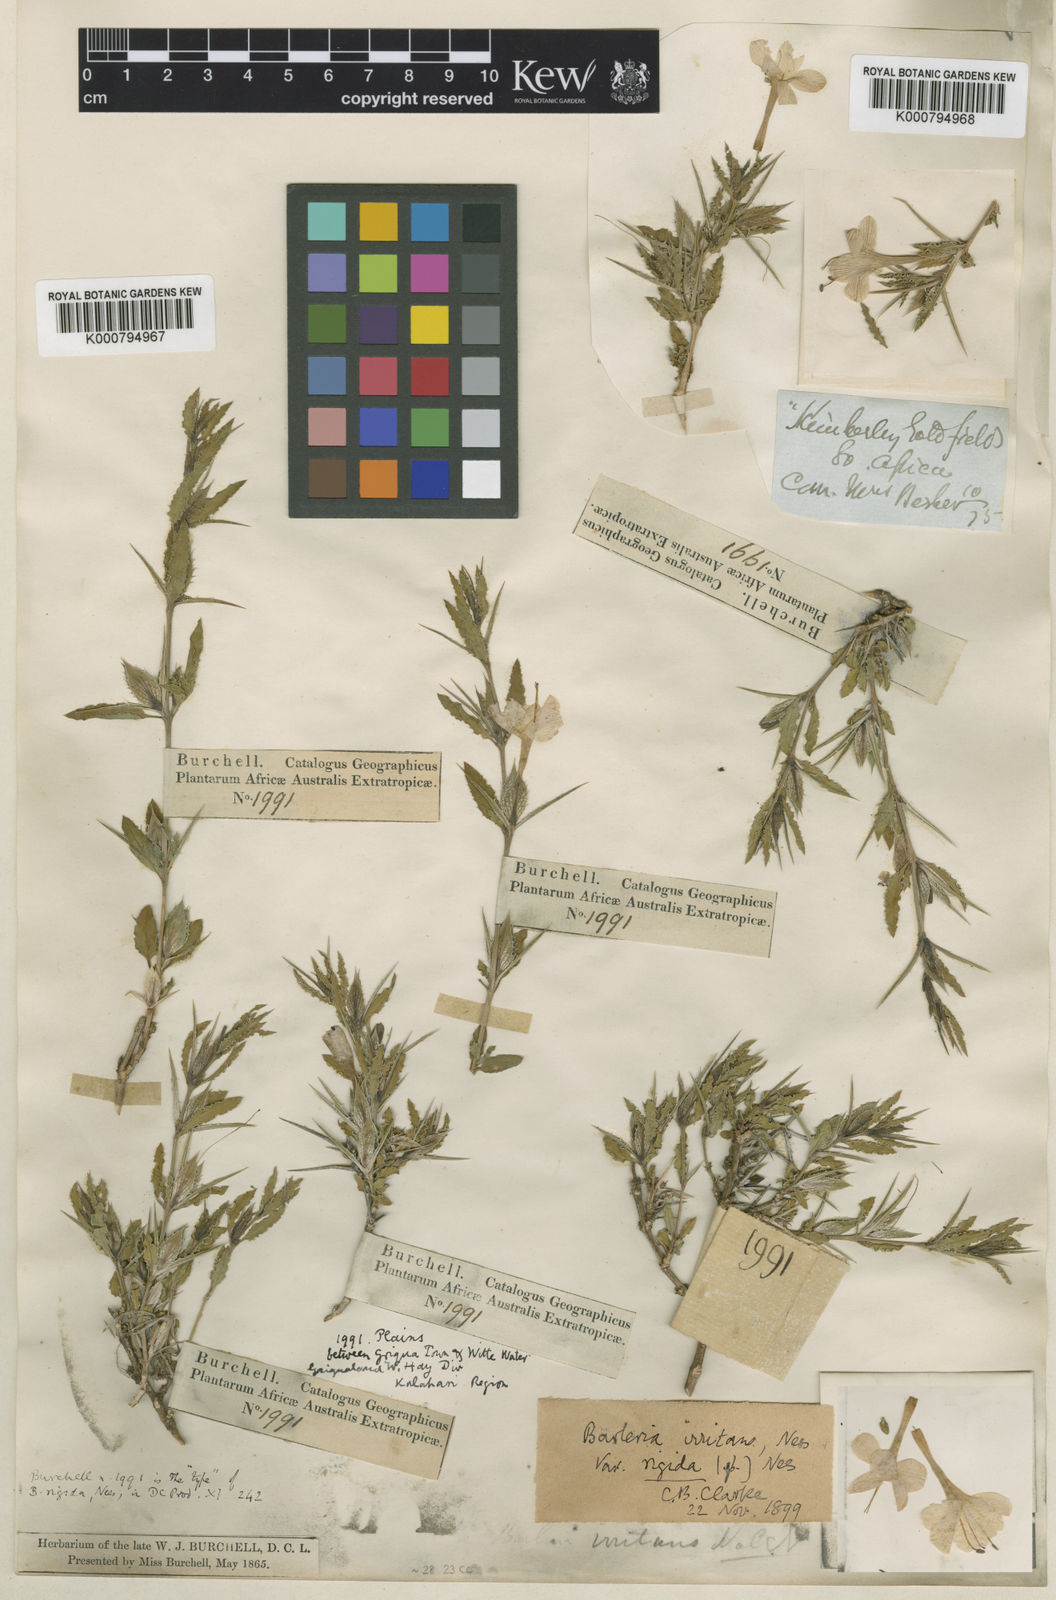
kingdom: Plantae
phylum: Tracheophyta
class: Magnoliopsida
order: Lamiales
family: Acanthaceae
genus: Barleria
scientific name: Barleria rigida
